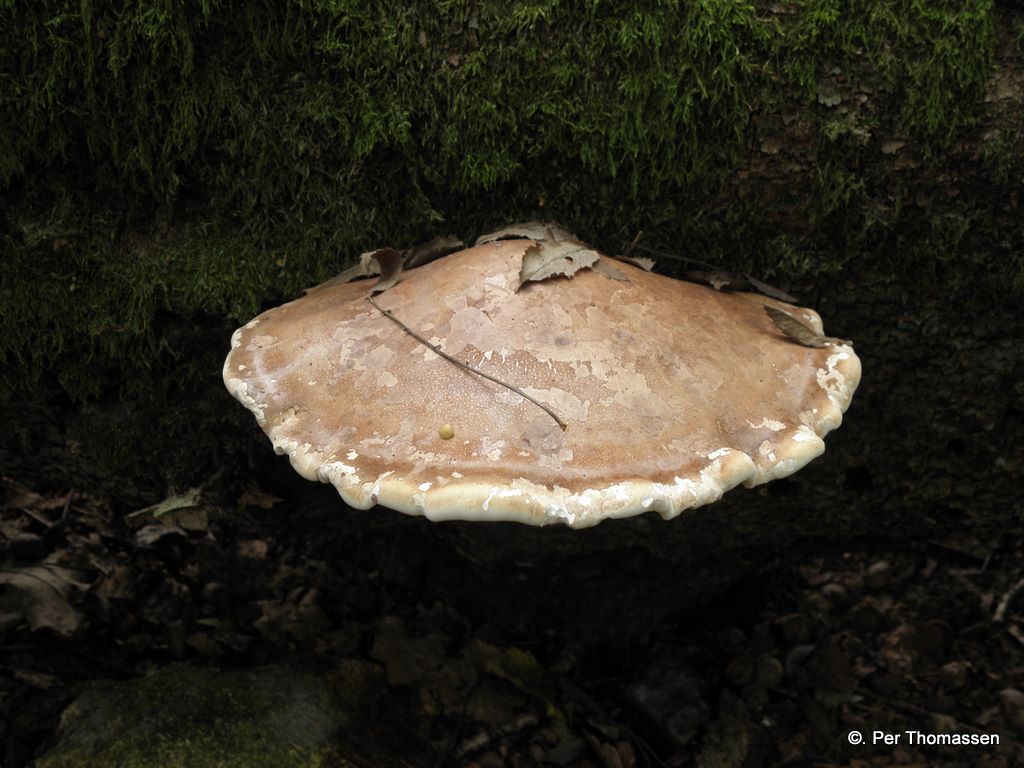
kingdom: Fungi
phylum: Basidiomycota
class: Agaricomycetes
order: Polyporales
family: Fomitopsidaceae
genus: Fomitopsis
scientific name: Fomitopsis betulina
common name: birkeporesvamp
